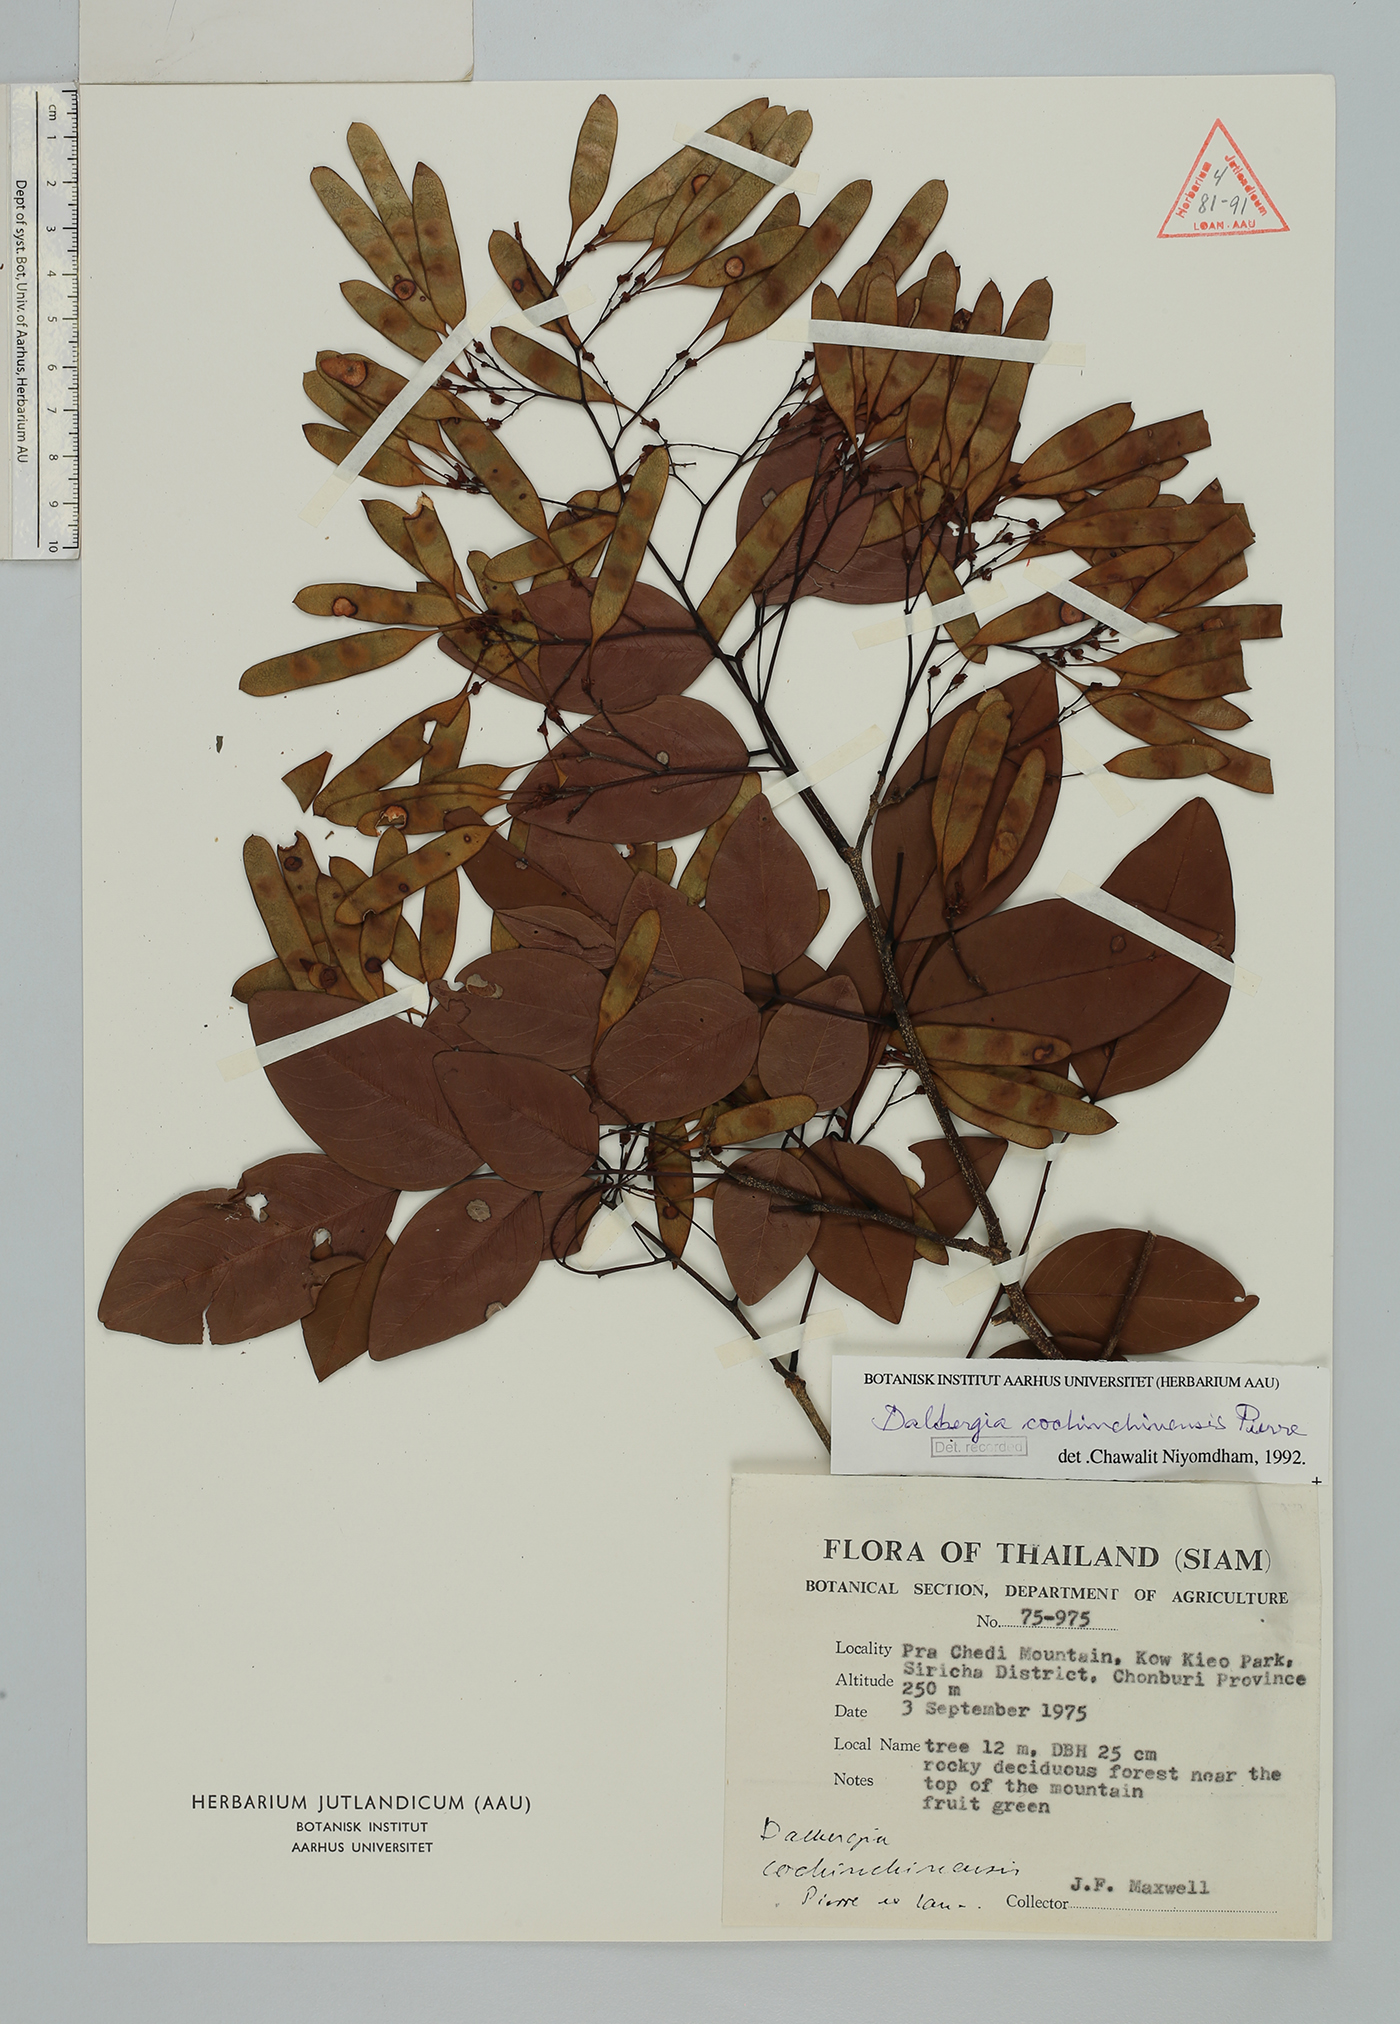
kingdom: Plantae
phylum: Tracheophyta
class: Magnoliopsida
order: Fabales
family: Fabaceae
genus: Dalbergia
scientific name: Dalbergia cochinchinensis
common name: Siamese rosewood
